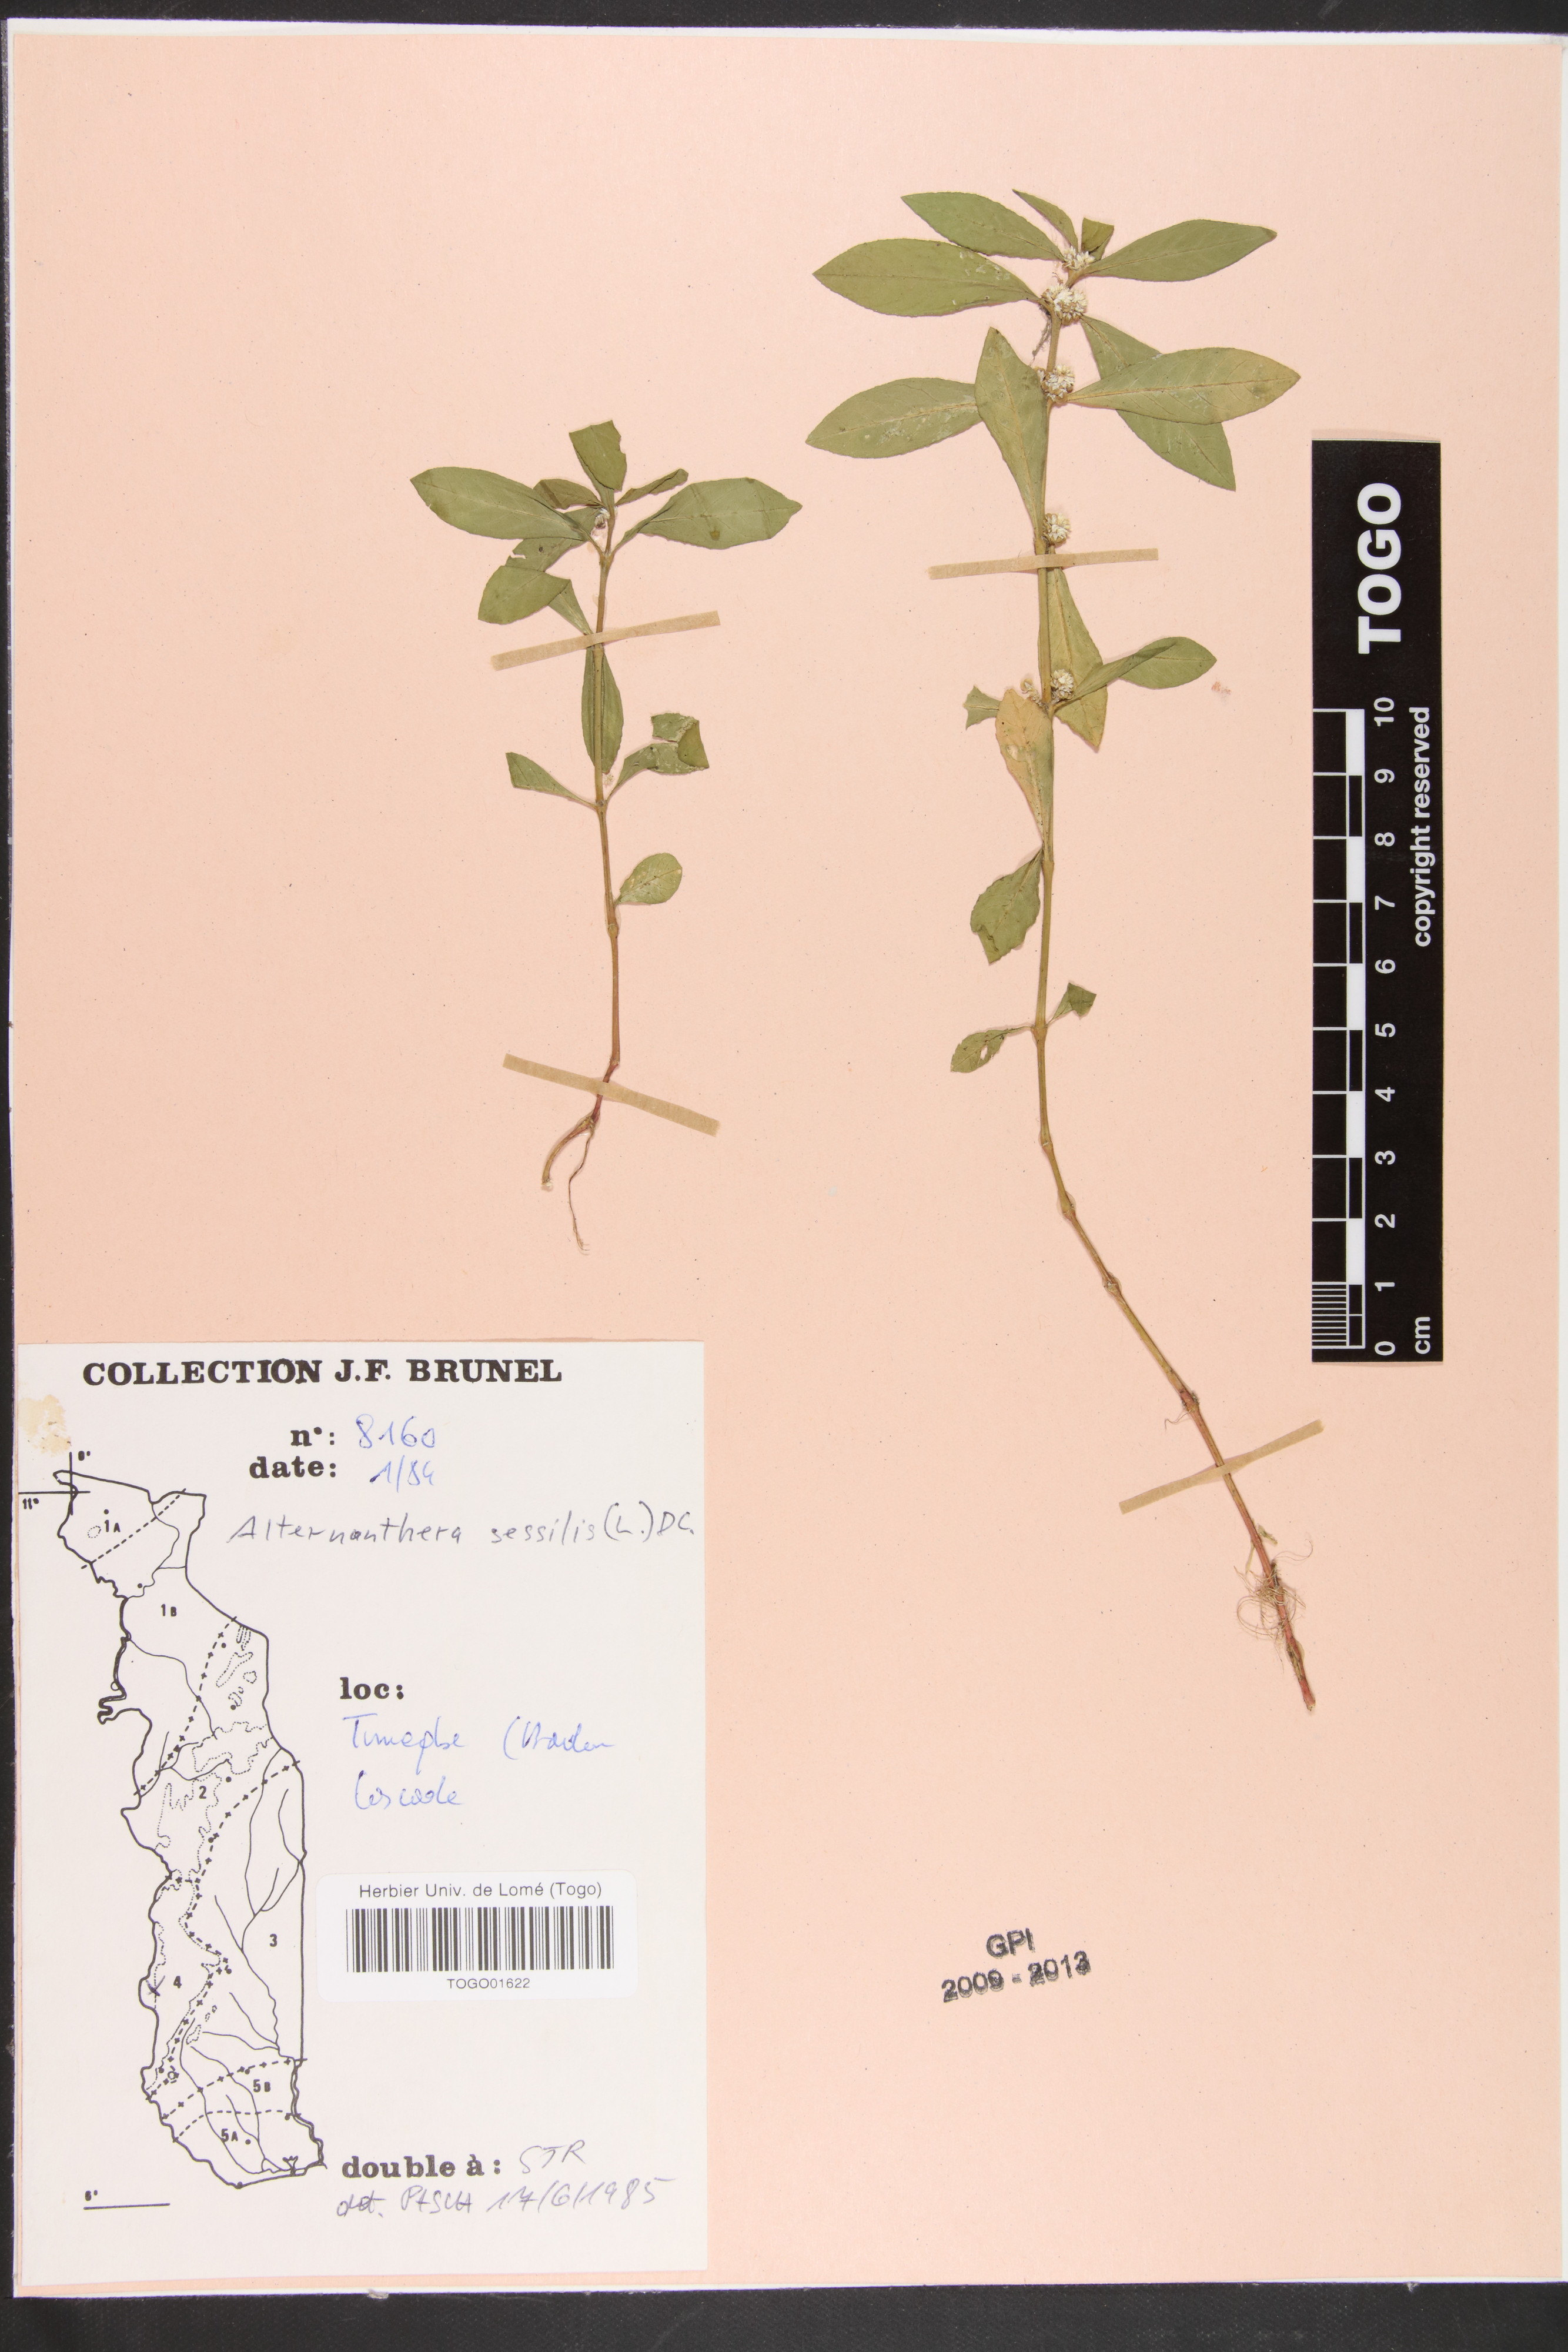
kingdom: Plantae
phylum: Tracheophyta
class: Magnoliopsida
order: Caryophyllales
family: Amaranthaceae
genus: Alternanthera
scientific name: Alternanthera sessilis
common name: Sessile joyweed
